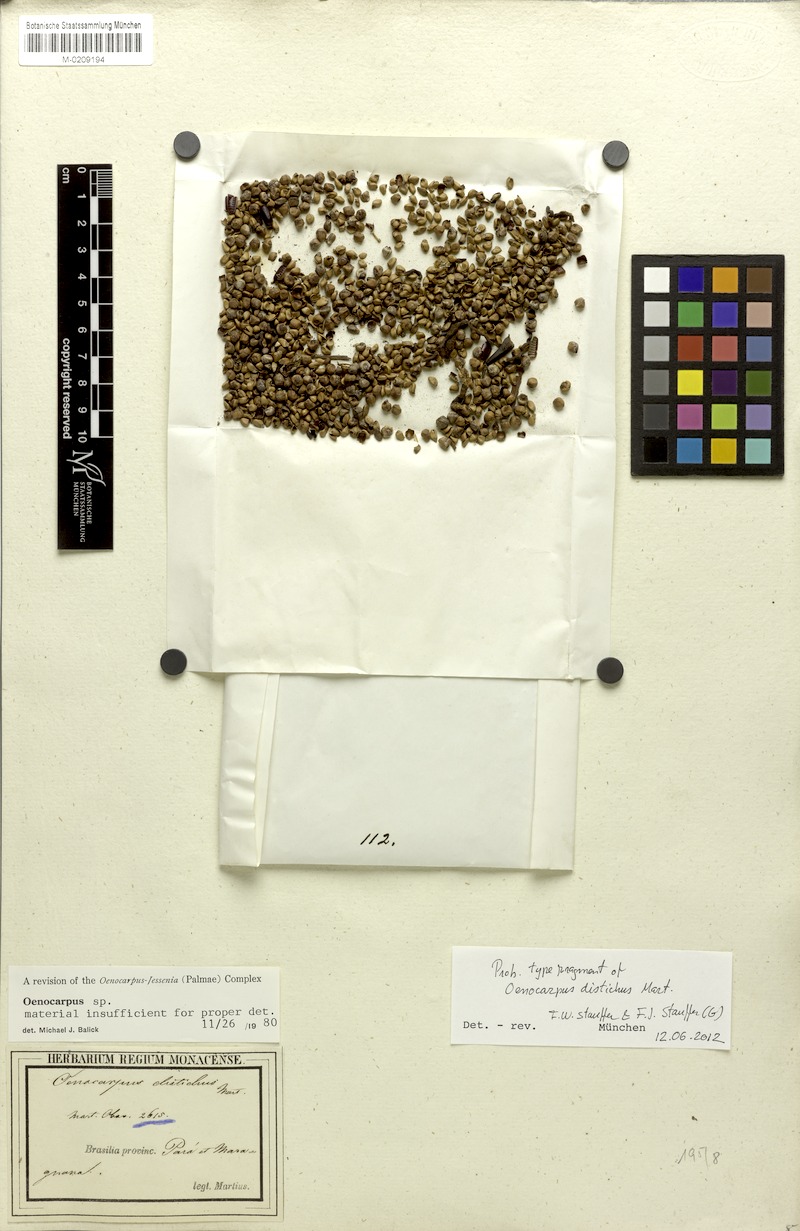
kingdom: Plantae
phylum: Tracheophyta
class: Liliopsida
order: Arecales
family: Arecaceae
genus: Oenocarpus
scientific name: Oenocarpus distichus
